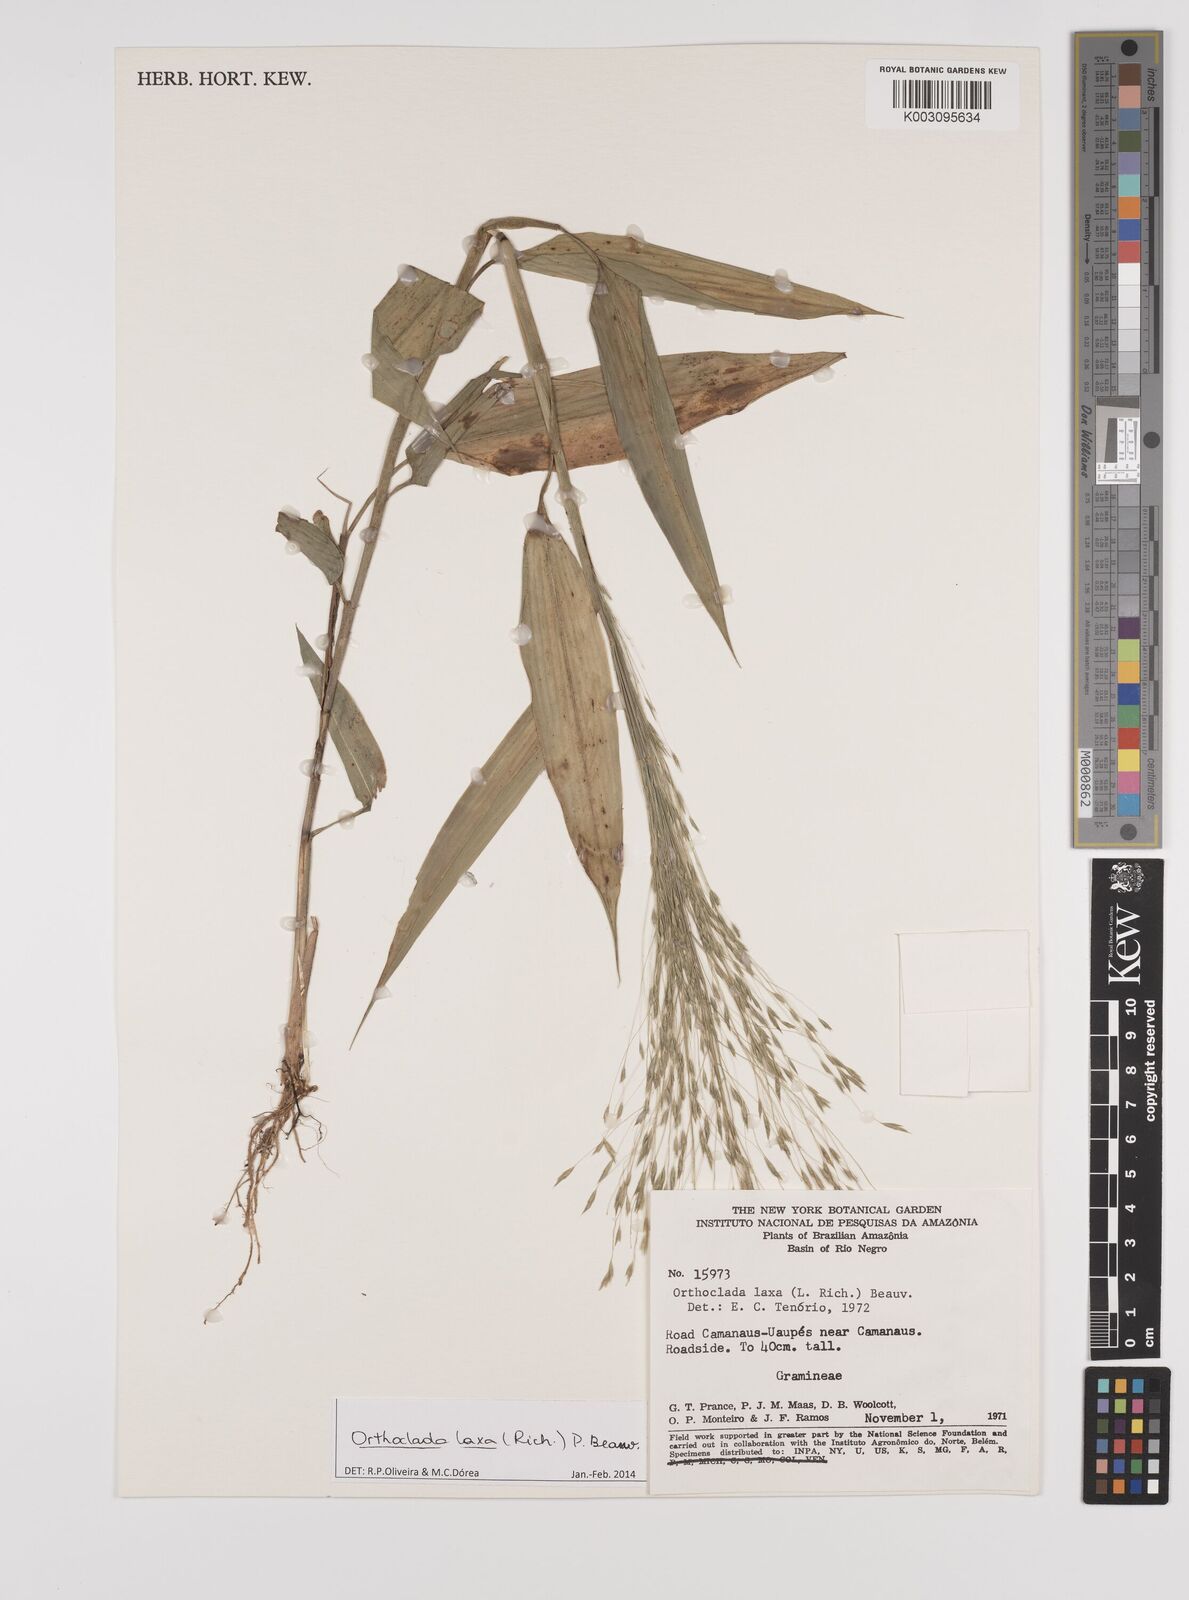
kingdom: Plantae
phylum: Tracheophyta
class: Liliopsida
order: Poales
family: Poaceae
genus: Orthoclada
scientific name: Orthoclada laxa
